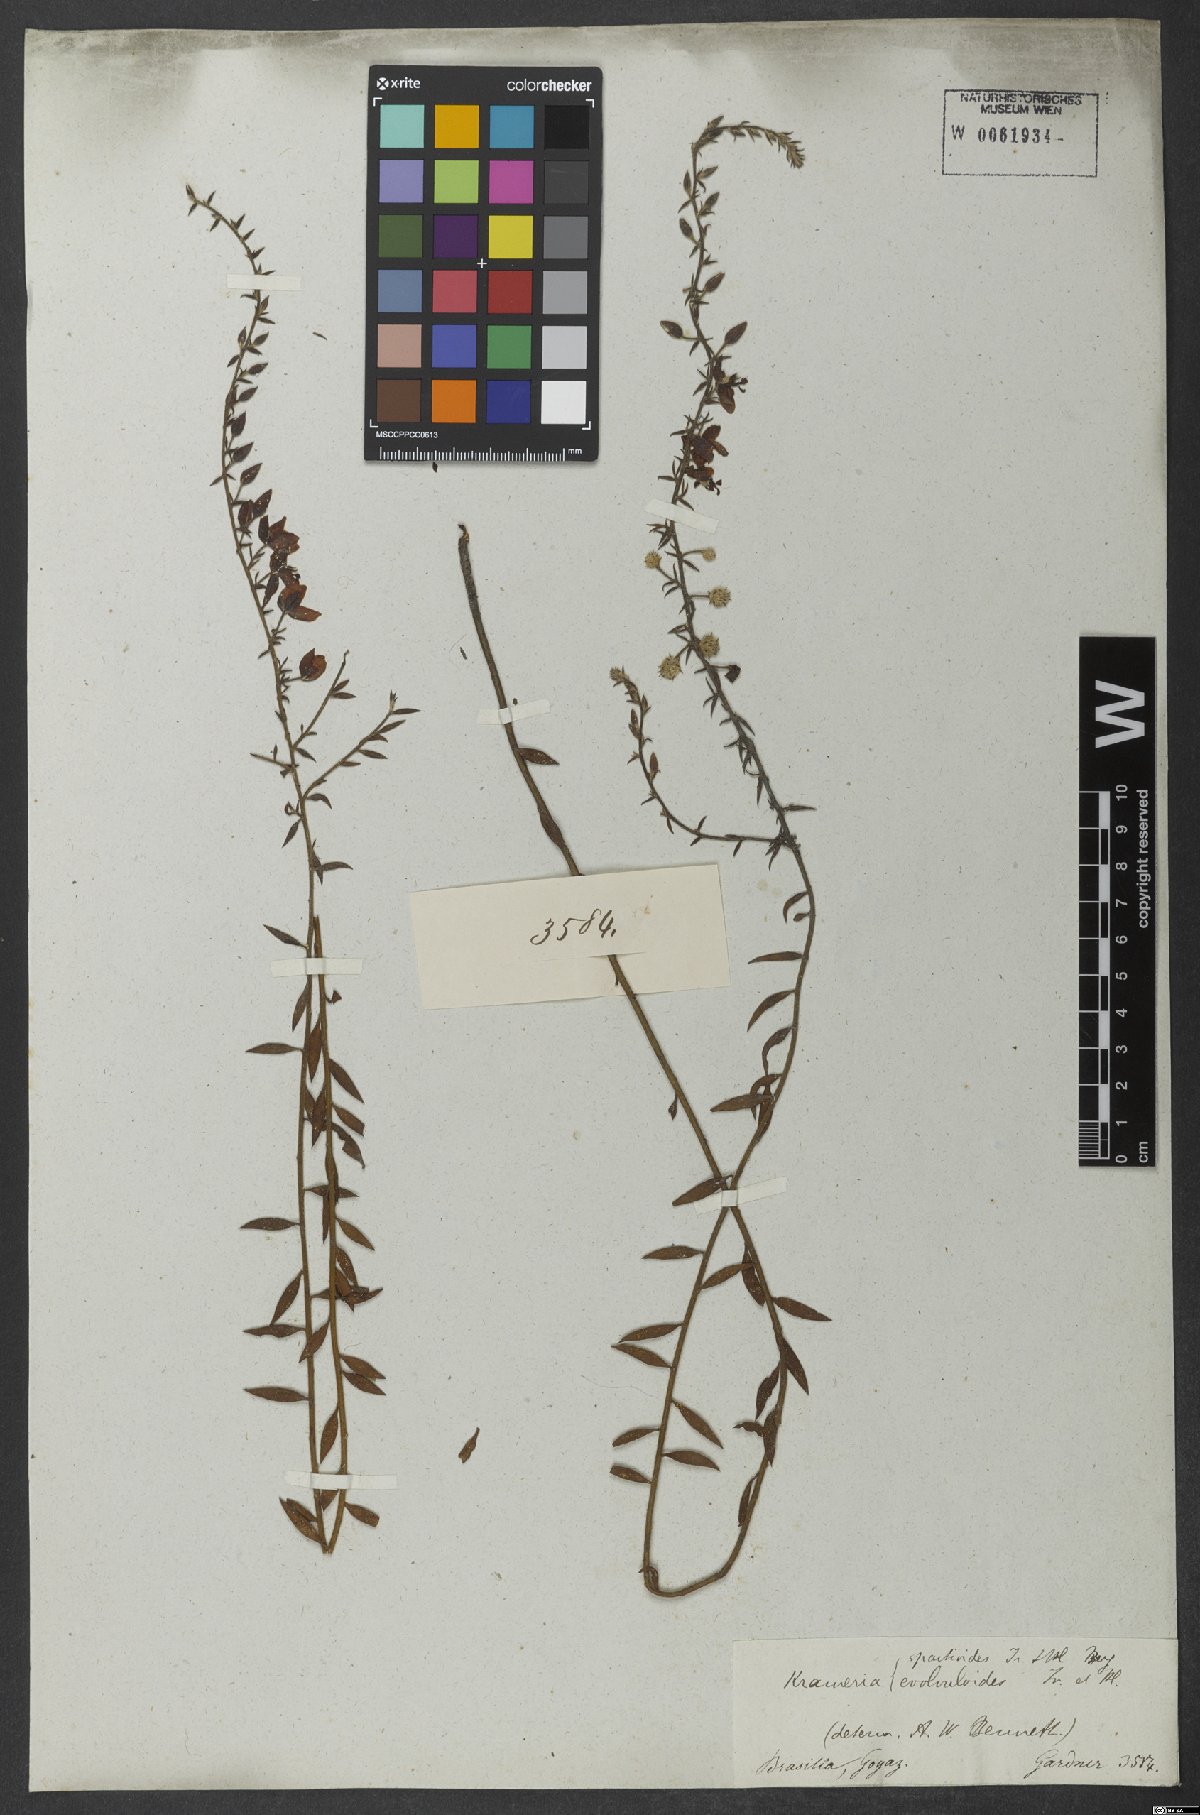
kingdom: Plantae
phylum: Tracheophyta
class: Magnoliopsida
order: Zygophyllales
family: Krameriaceae
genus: Krameria
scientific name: Krameria spartioides
